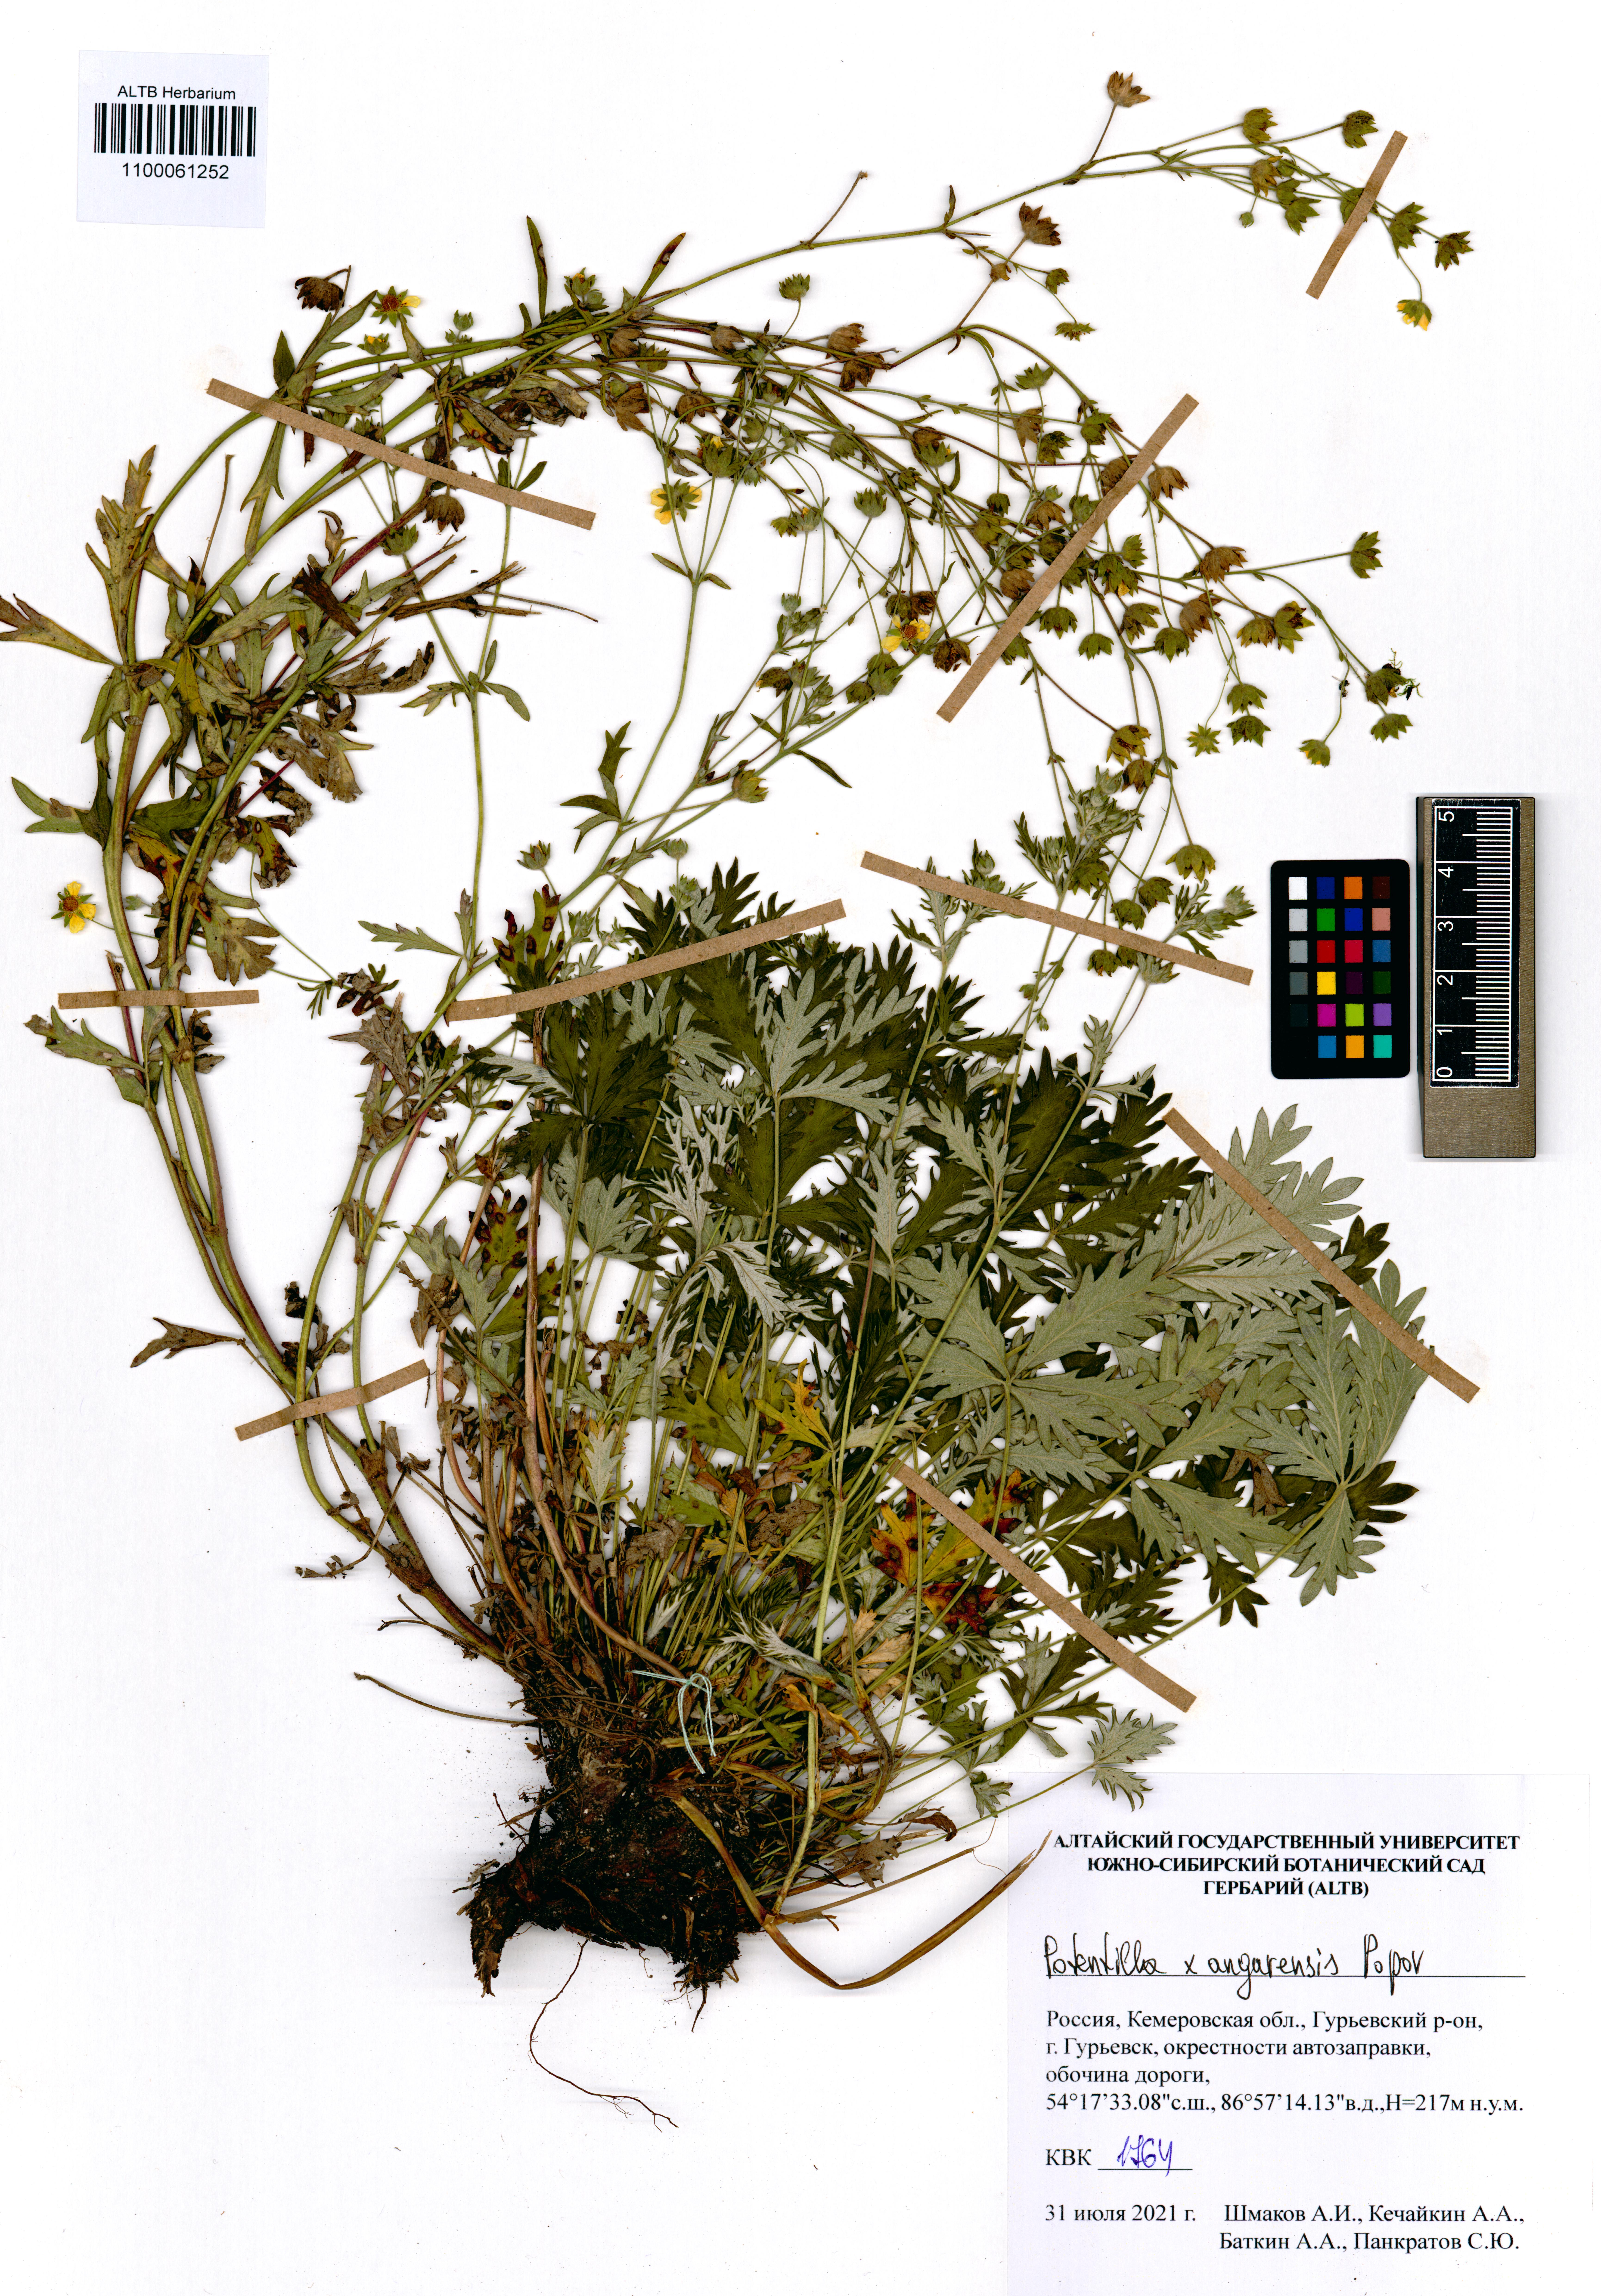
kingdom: Plantae
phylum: Tracheophyta
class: Magnoliopsida
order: Rosales
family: Rosaceae
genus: Potentilla
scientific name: Potentilla angarensis
